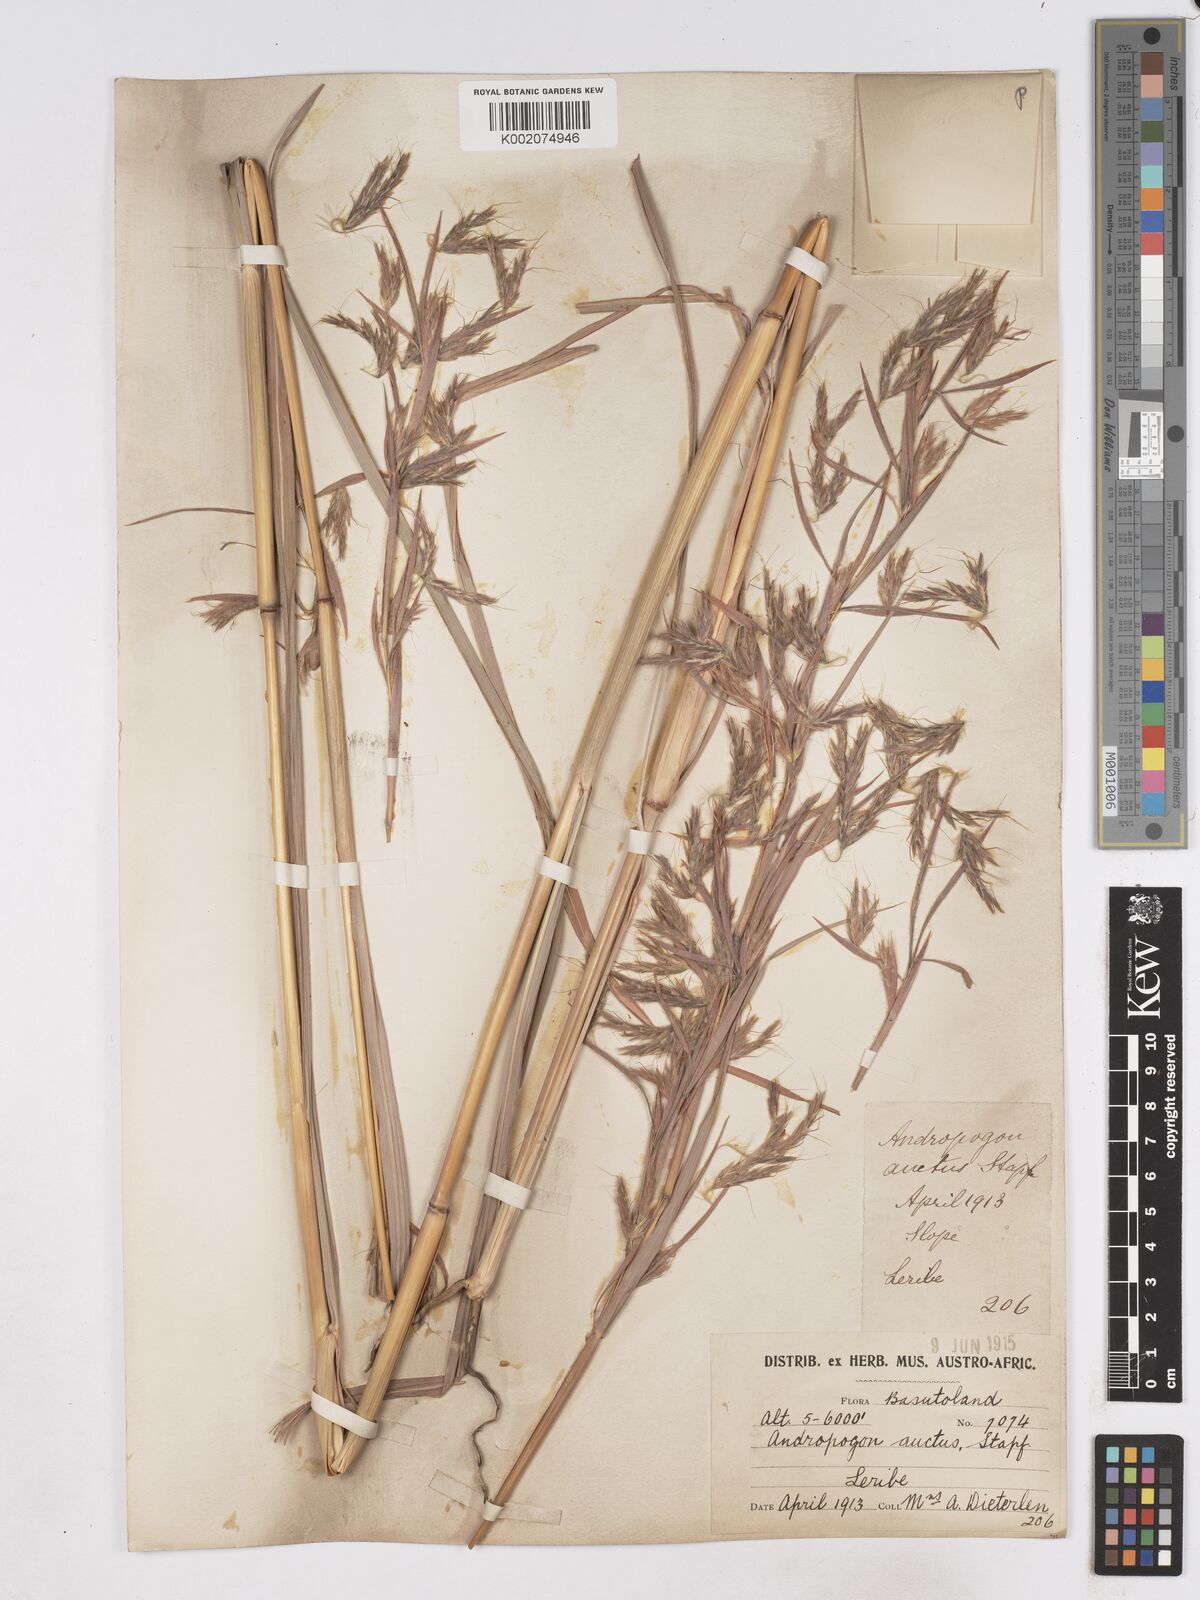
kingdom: Plantae
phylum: Tracheophyta
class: Liliopsida
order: Poales
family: Poaceae
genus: Hyparrhenia
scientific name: Hyparrhenia dregeana
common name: Silky thatching grass
